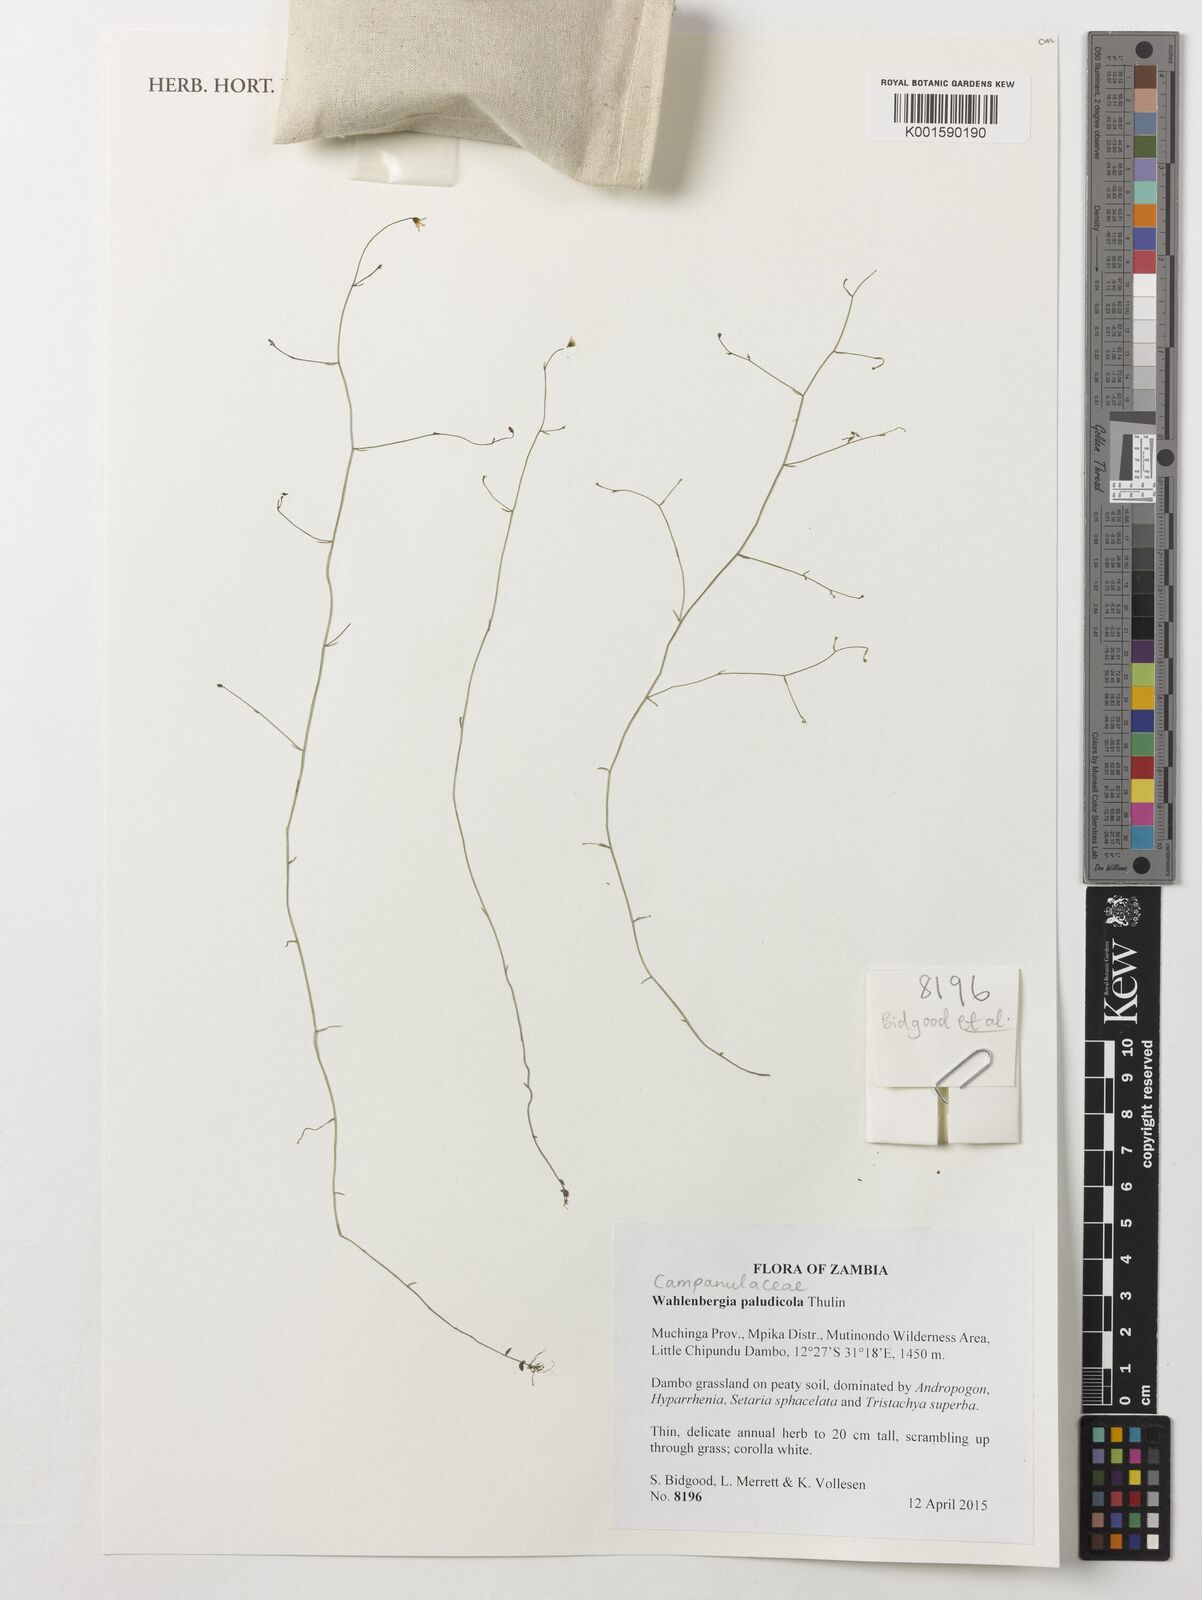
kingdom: Plantae
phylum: Tracheophyta
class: Magnoliopsida
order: Asterales
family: Campanulaceae
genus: Wahlenbergia
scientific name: Wahlenbergia paludicola
